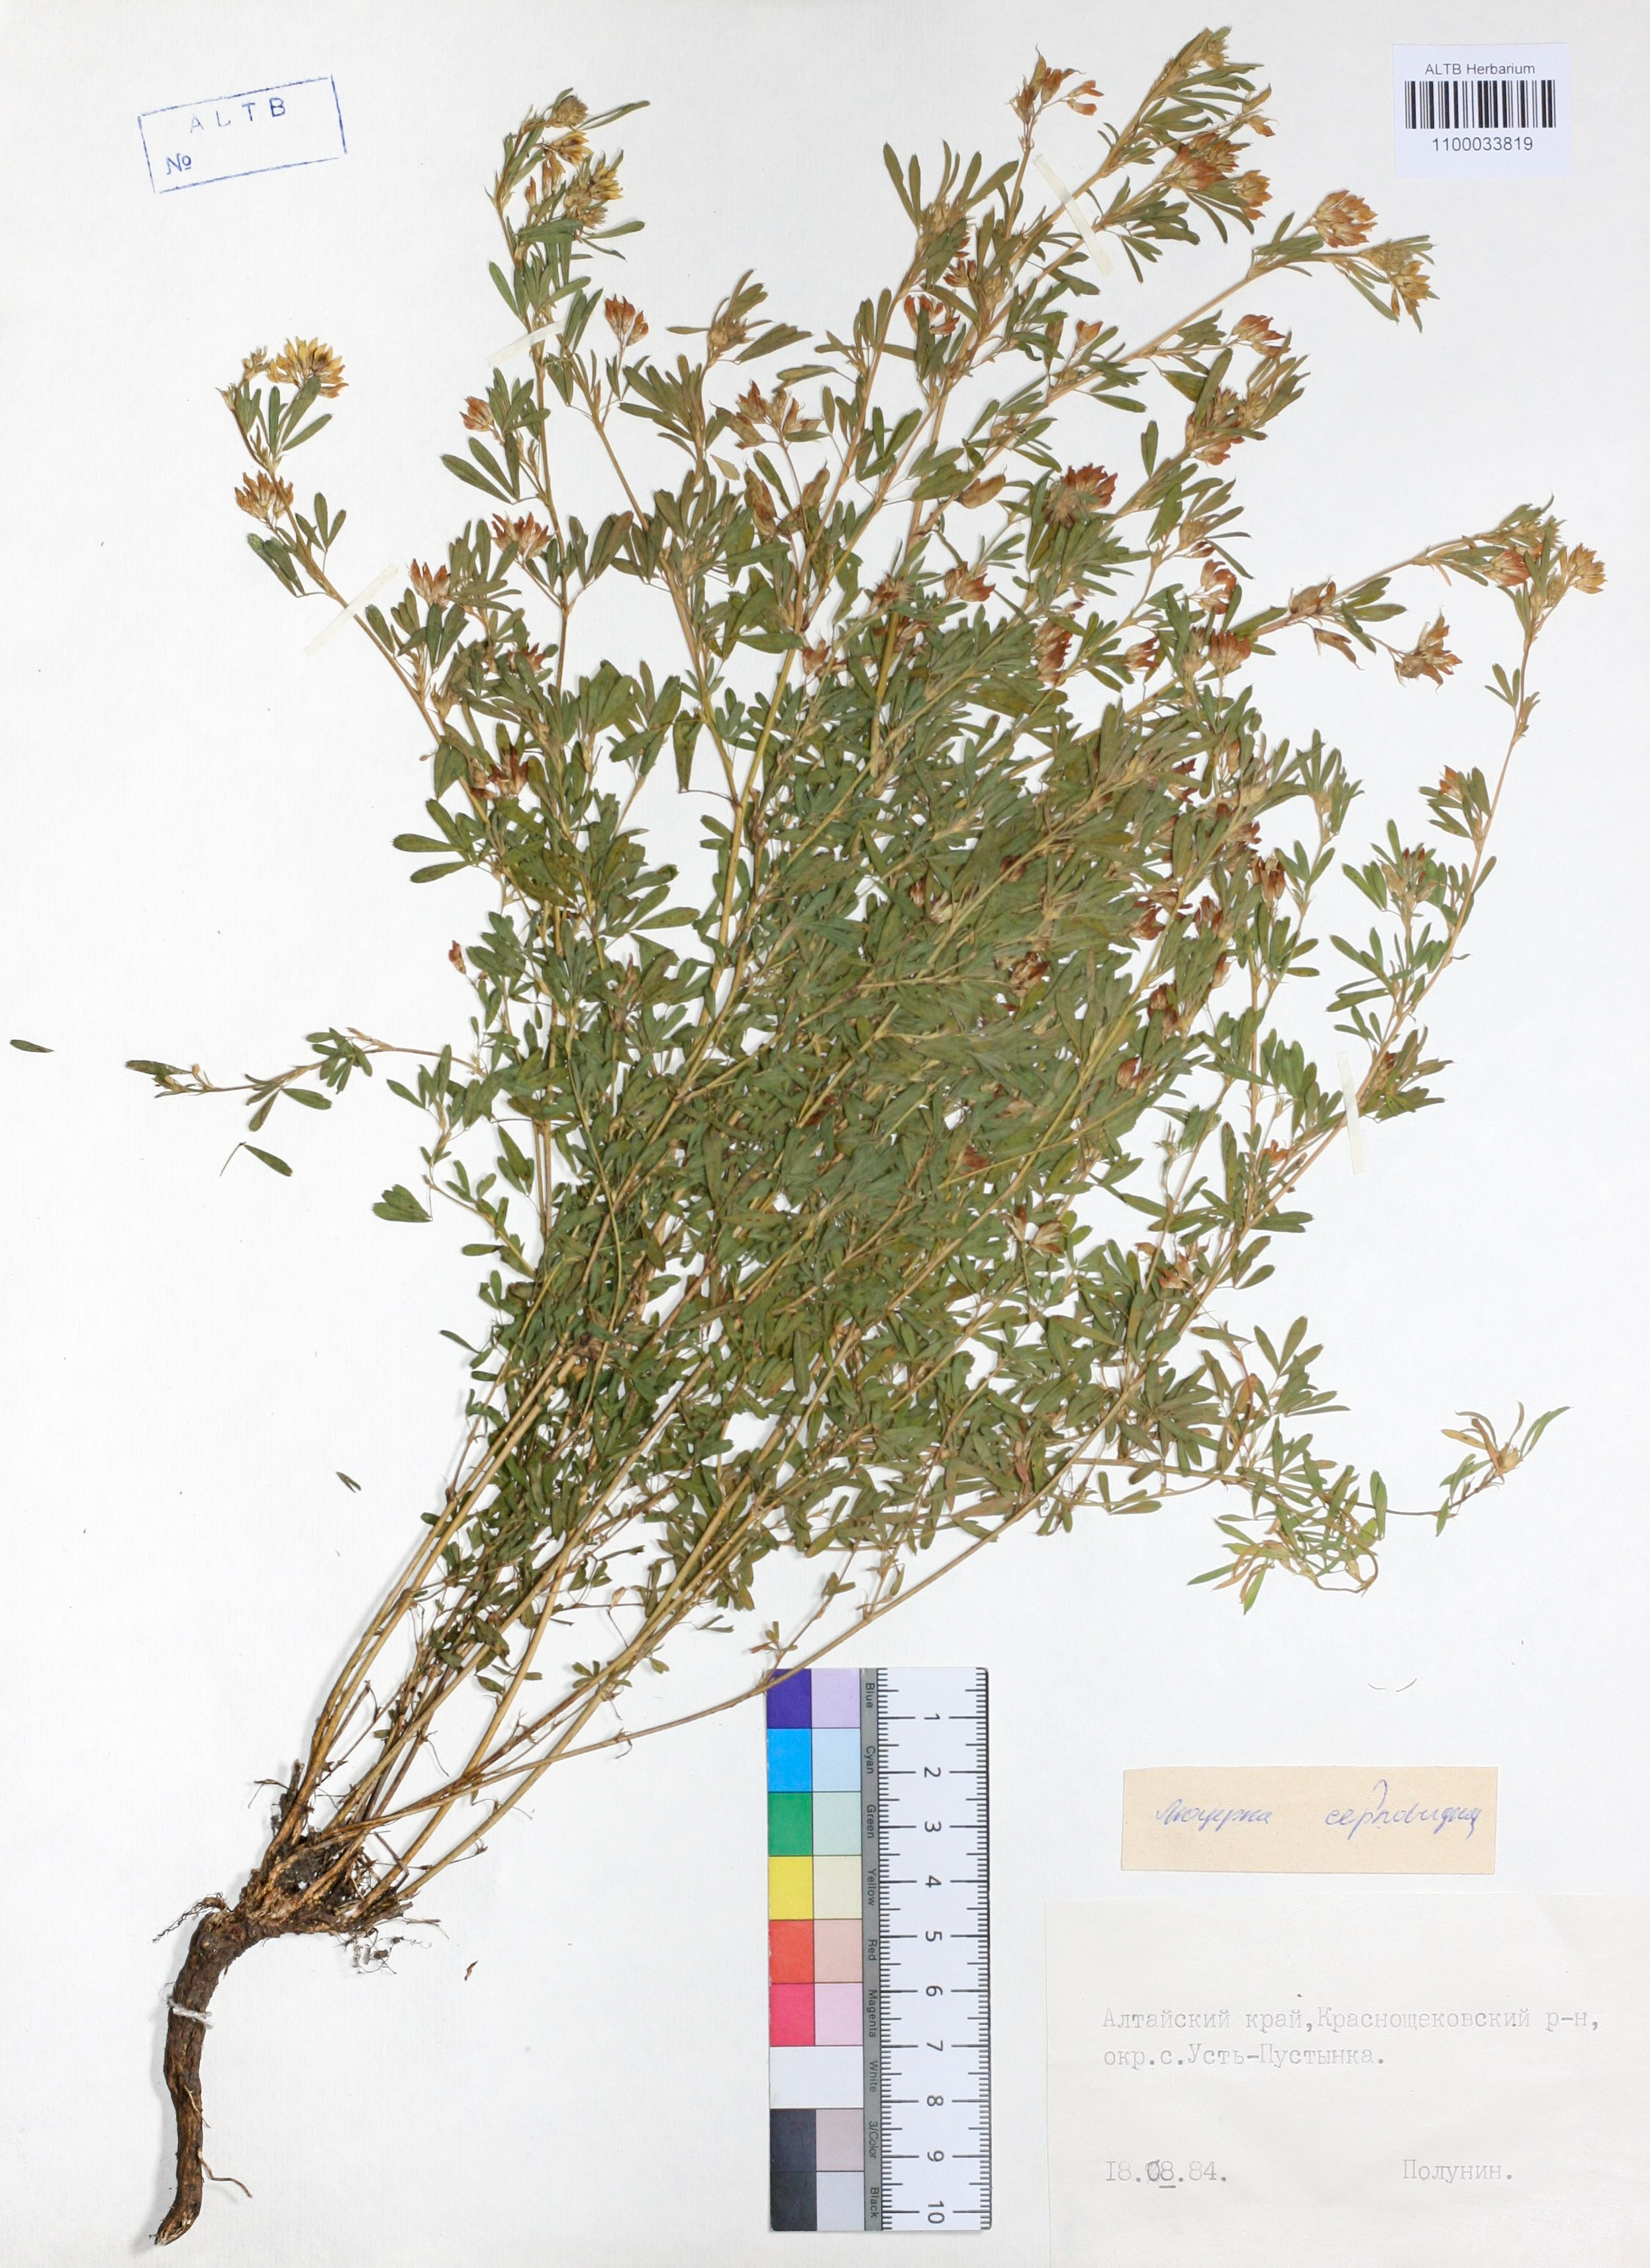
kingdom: Plantae
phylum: Tracheophyta
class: Magnoliopsida
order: Fabales
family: Fabaceae
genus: Medicago
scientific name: Medicago falcata
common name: Sickle medick
